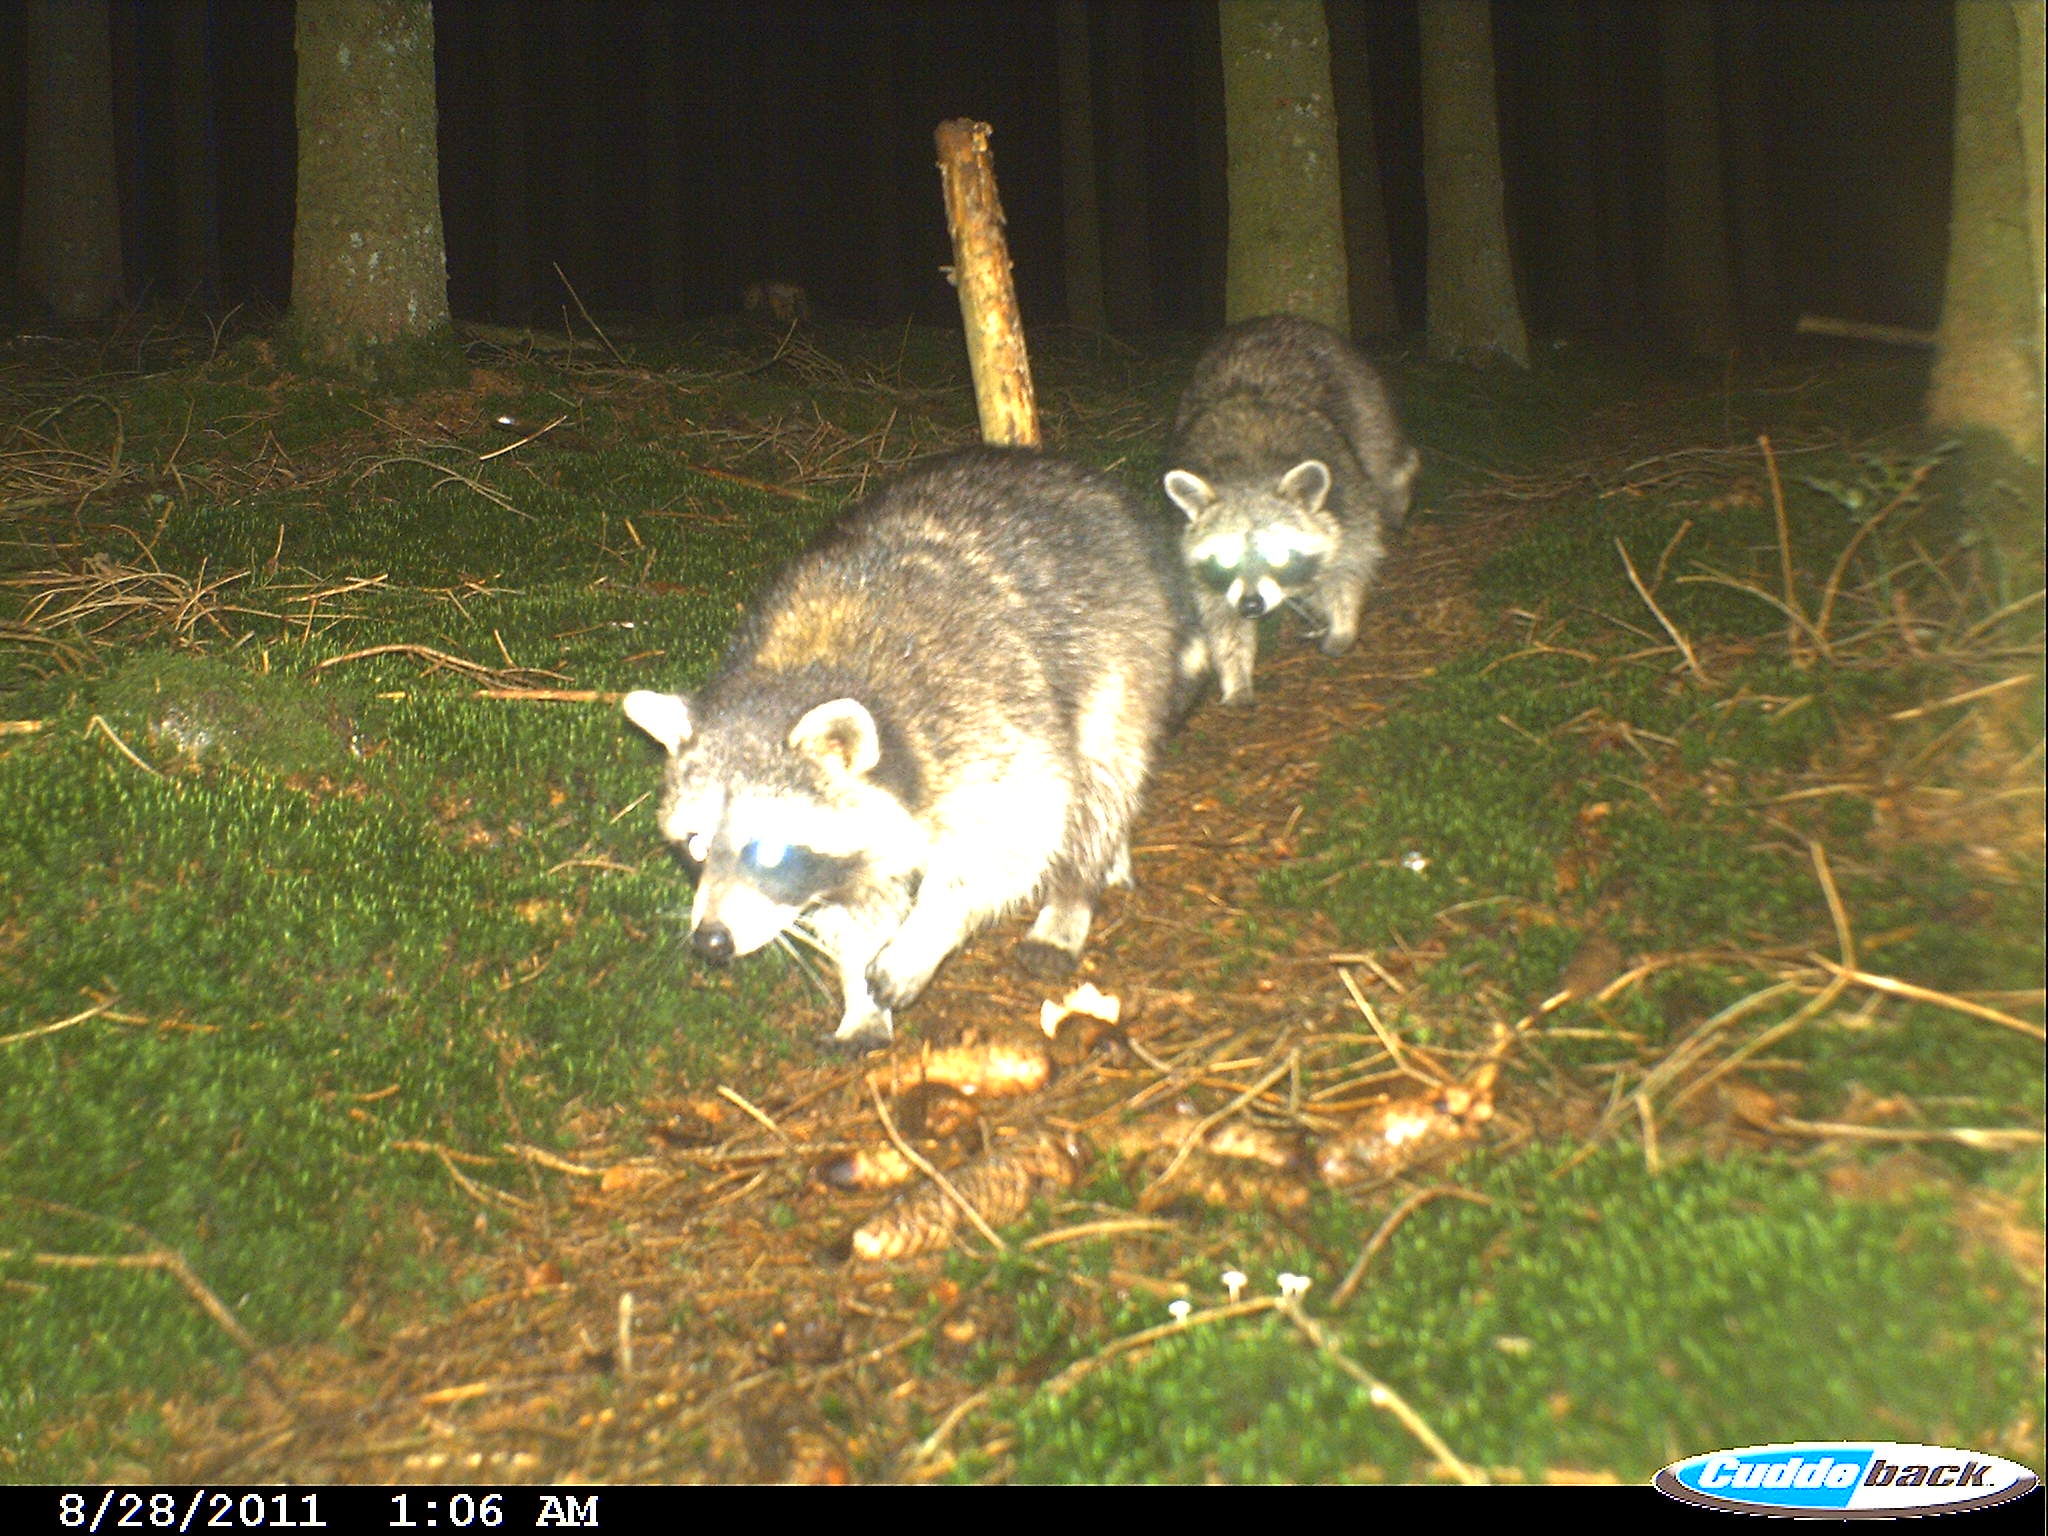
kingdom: Animalia
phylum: Chordata
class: Mammalia
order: Carnivora
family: Procyonidae
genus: Procyon
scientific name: Procyon lotor
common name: Raccoon
